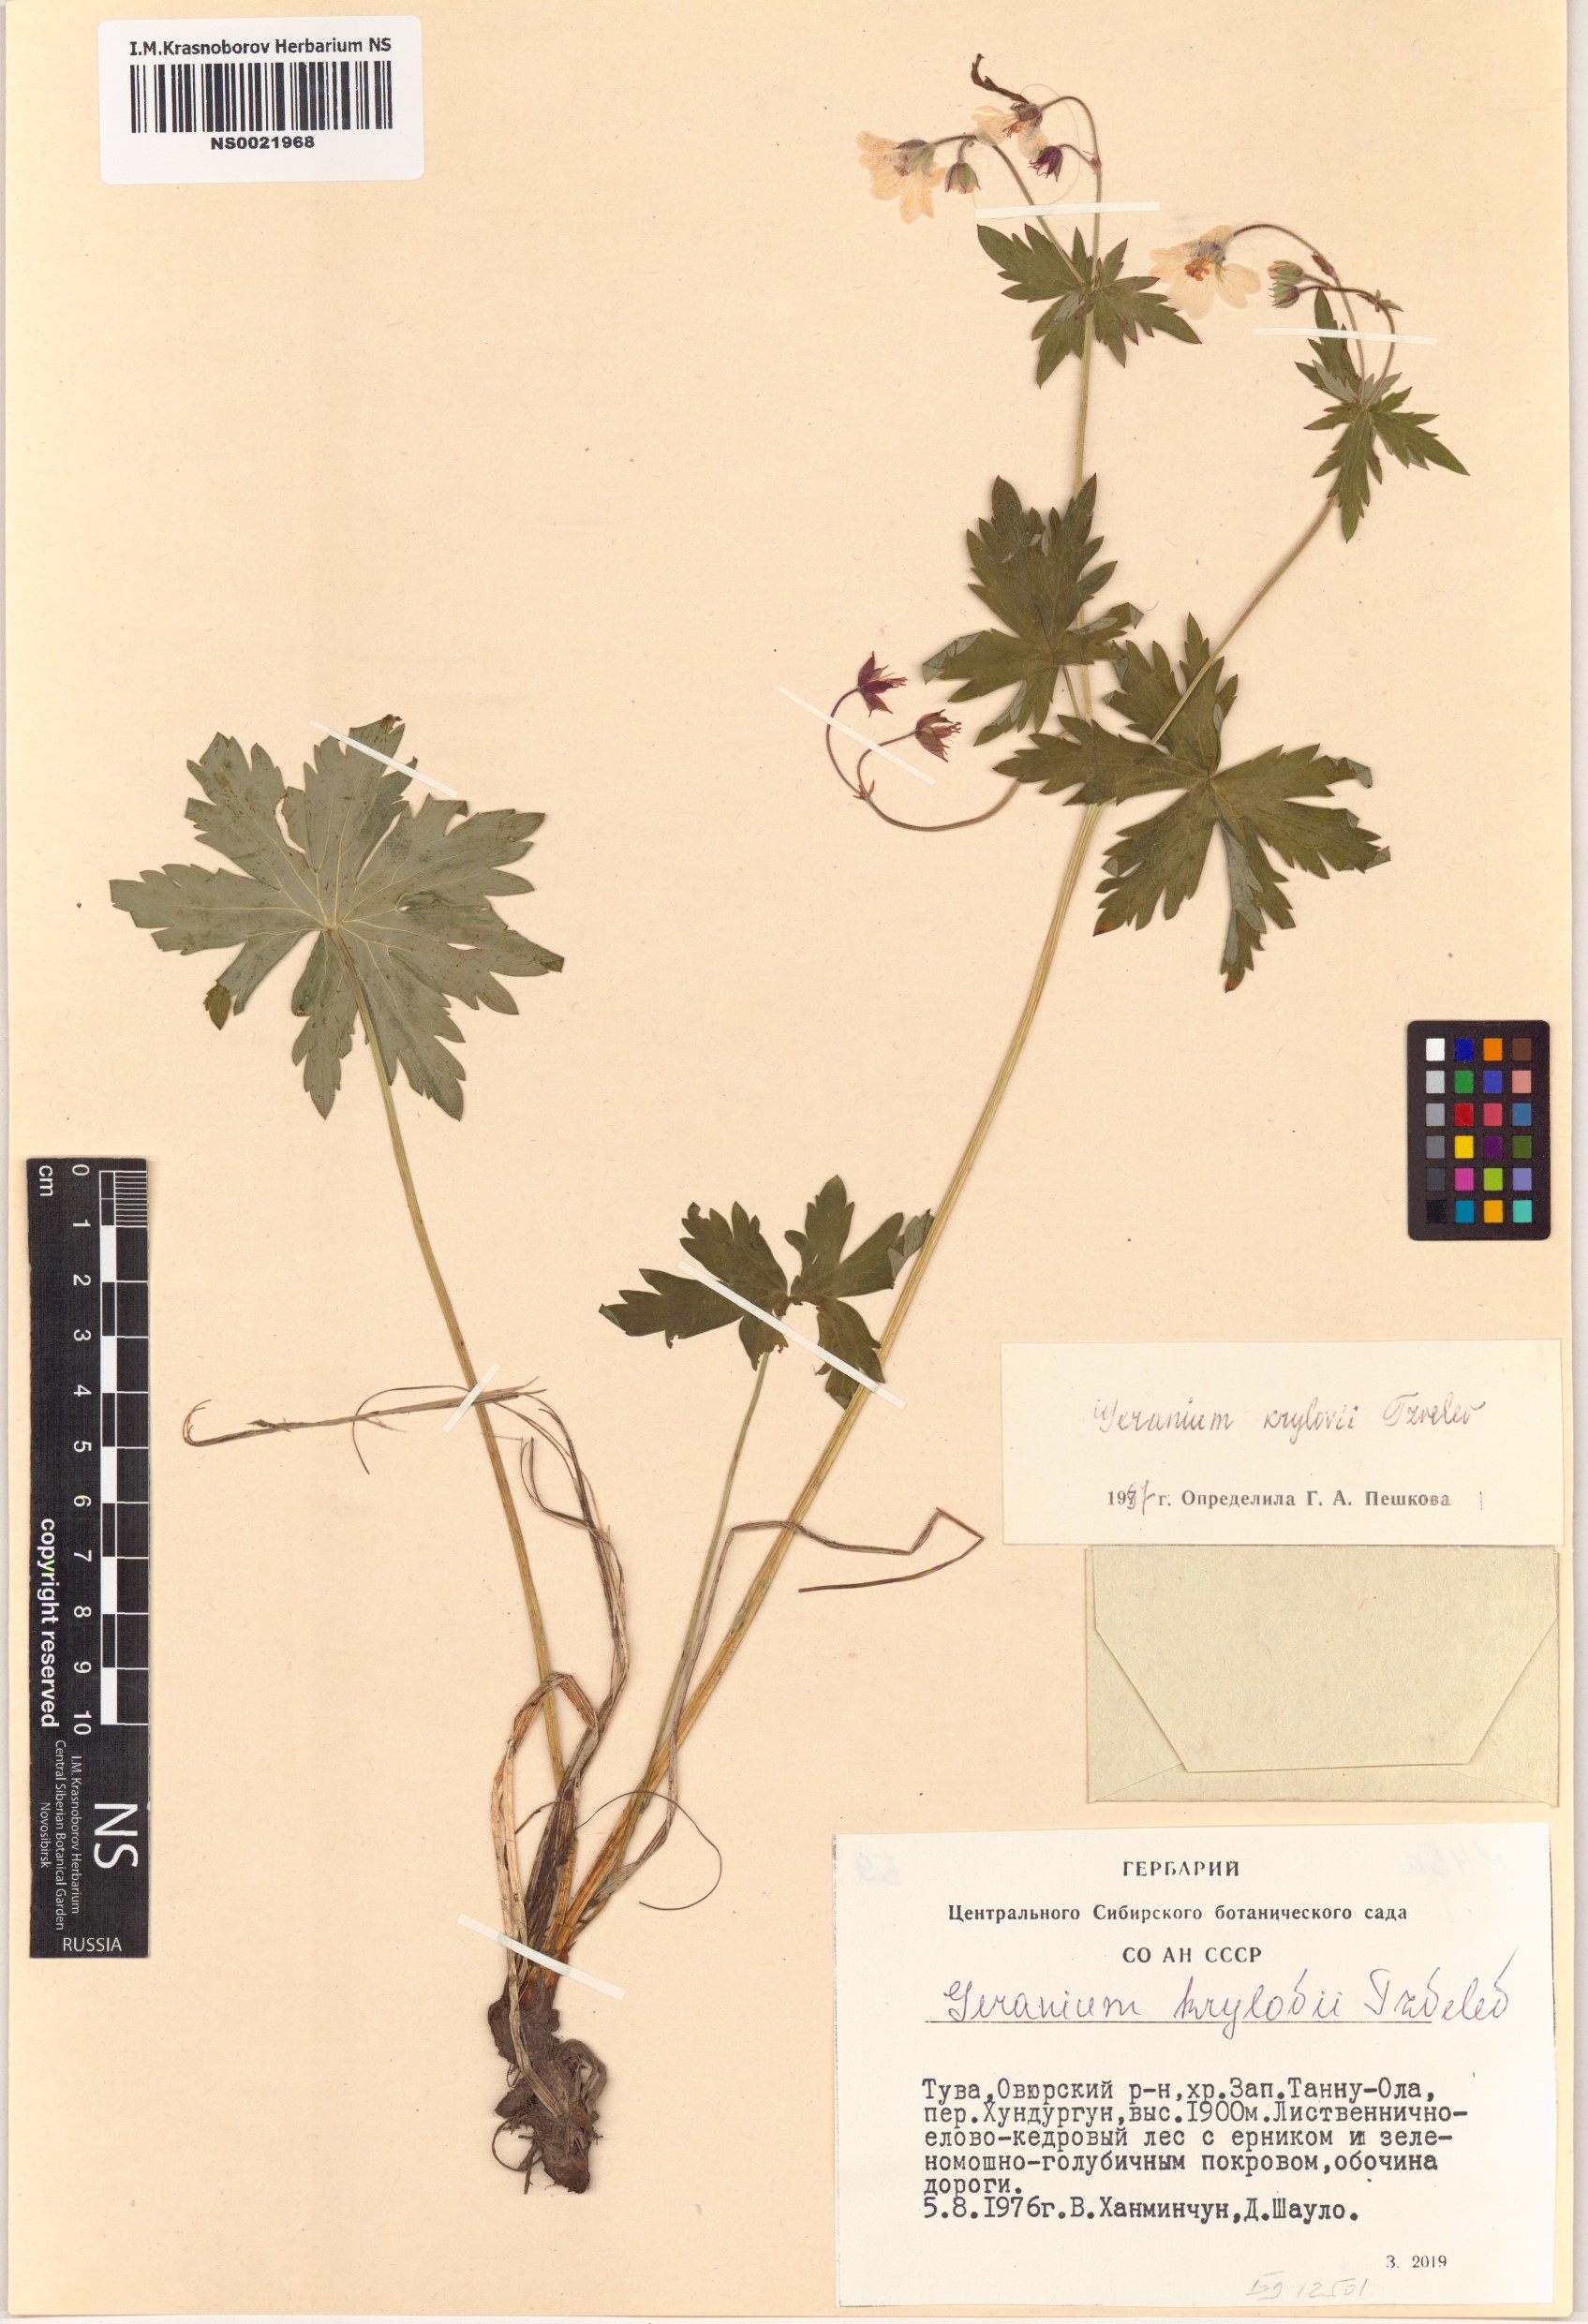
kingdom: Plantae
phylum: Tracheophyta
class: Magnoliopsida
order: Geraniales
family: Geraniaceae
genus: Geranium
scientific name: Geranium sylvaticum
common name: Wood crane's-bill
